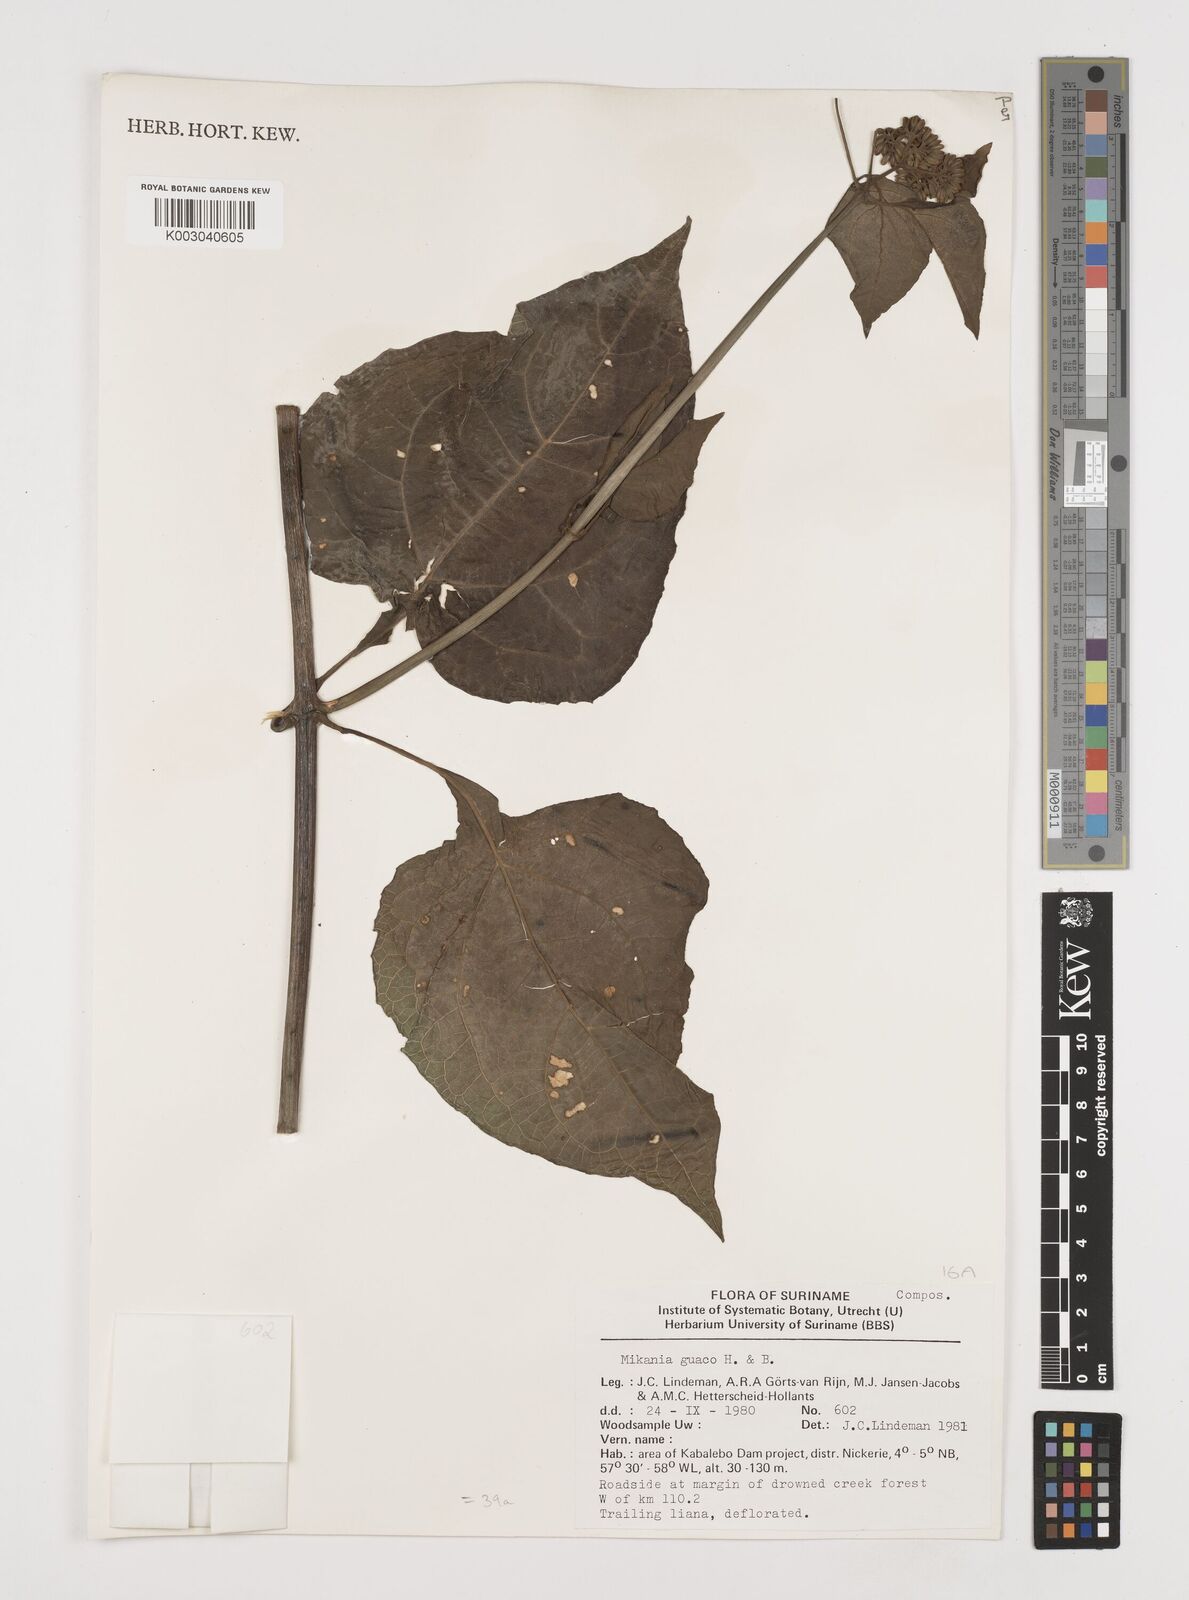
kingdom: Plantae
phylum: Tracheophyta
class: Magnoliopsida
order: Asterales
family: Asteraceae
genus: Mikania
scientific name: Mikania trinitaria
